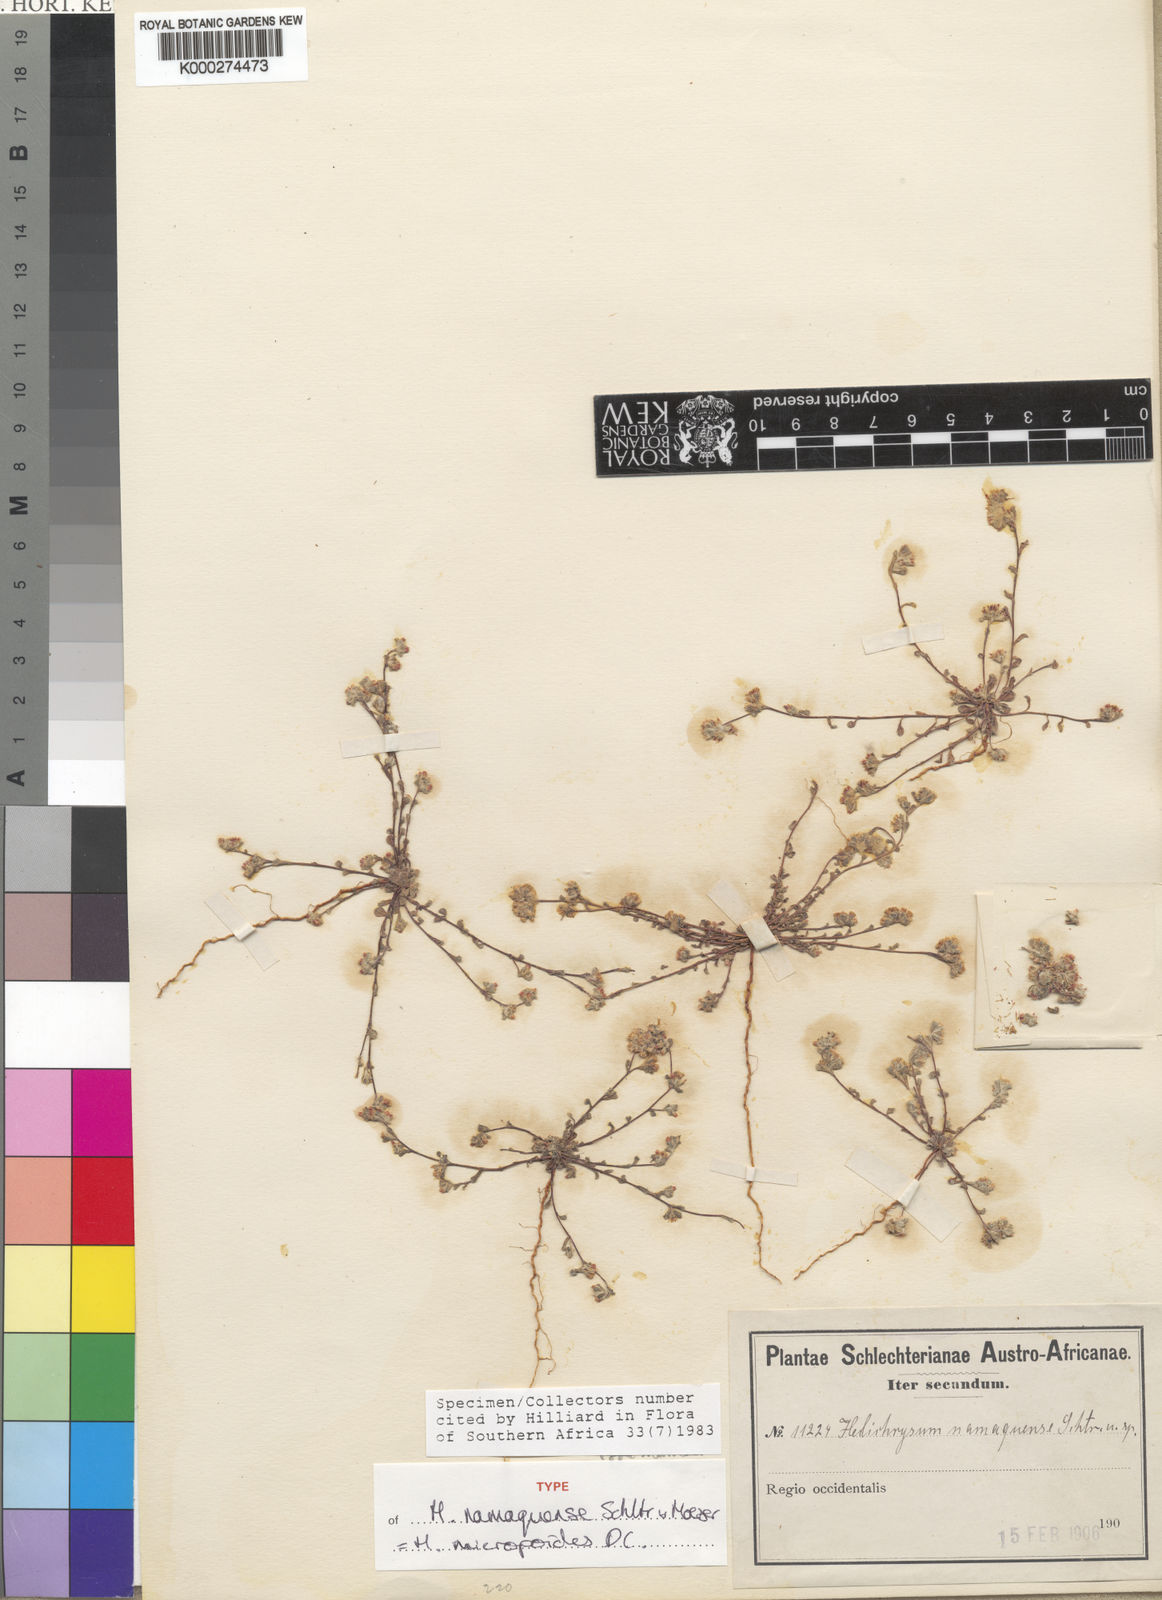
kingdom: Plantae
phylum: Tracheophyta
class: Magnoliopsida
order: Asterales
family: Asteraceae
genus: Helichrysum
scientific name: Helichrysum micropoides
